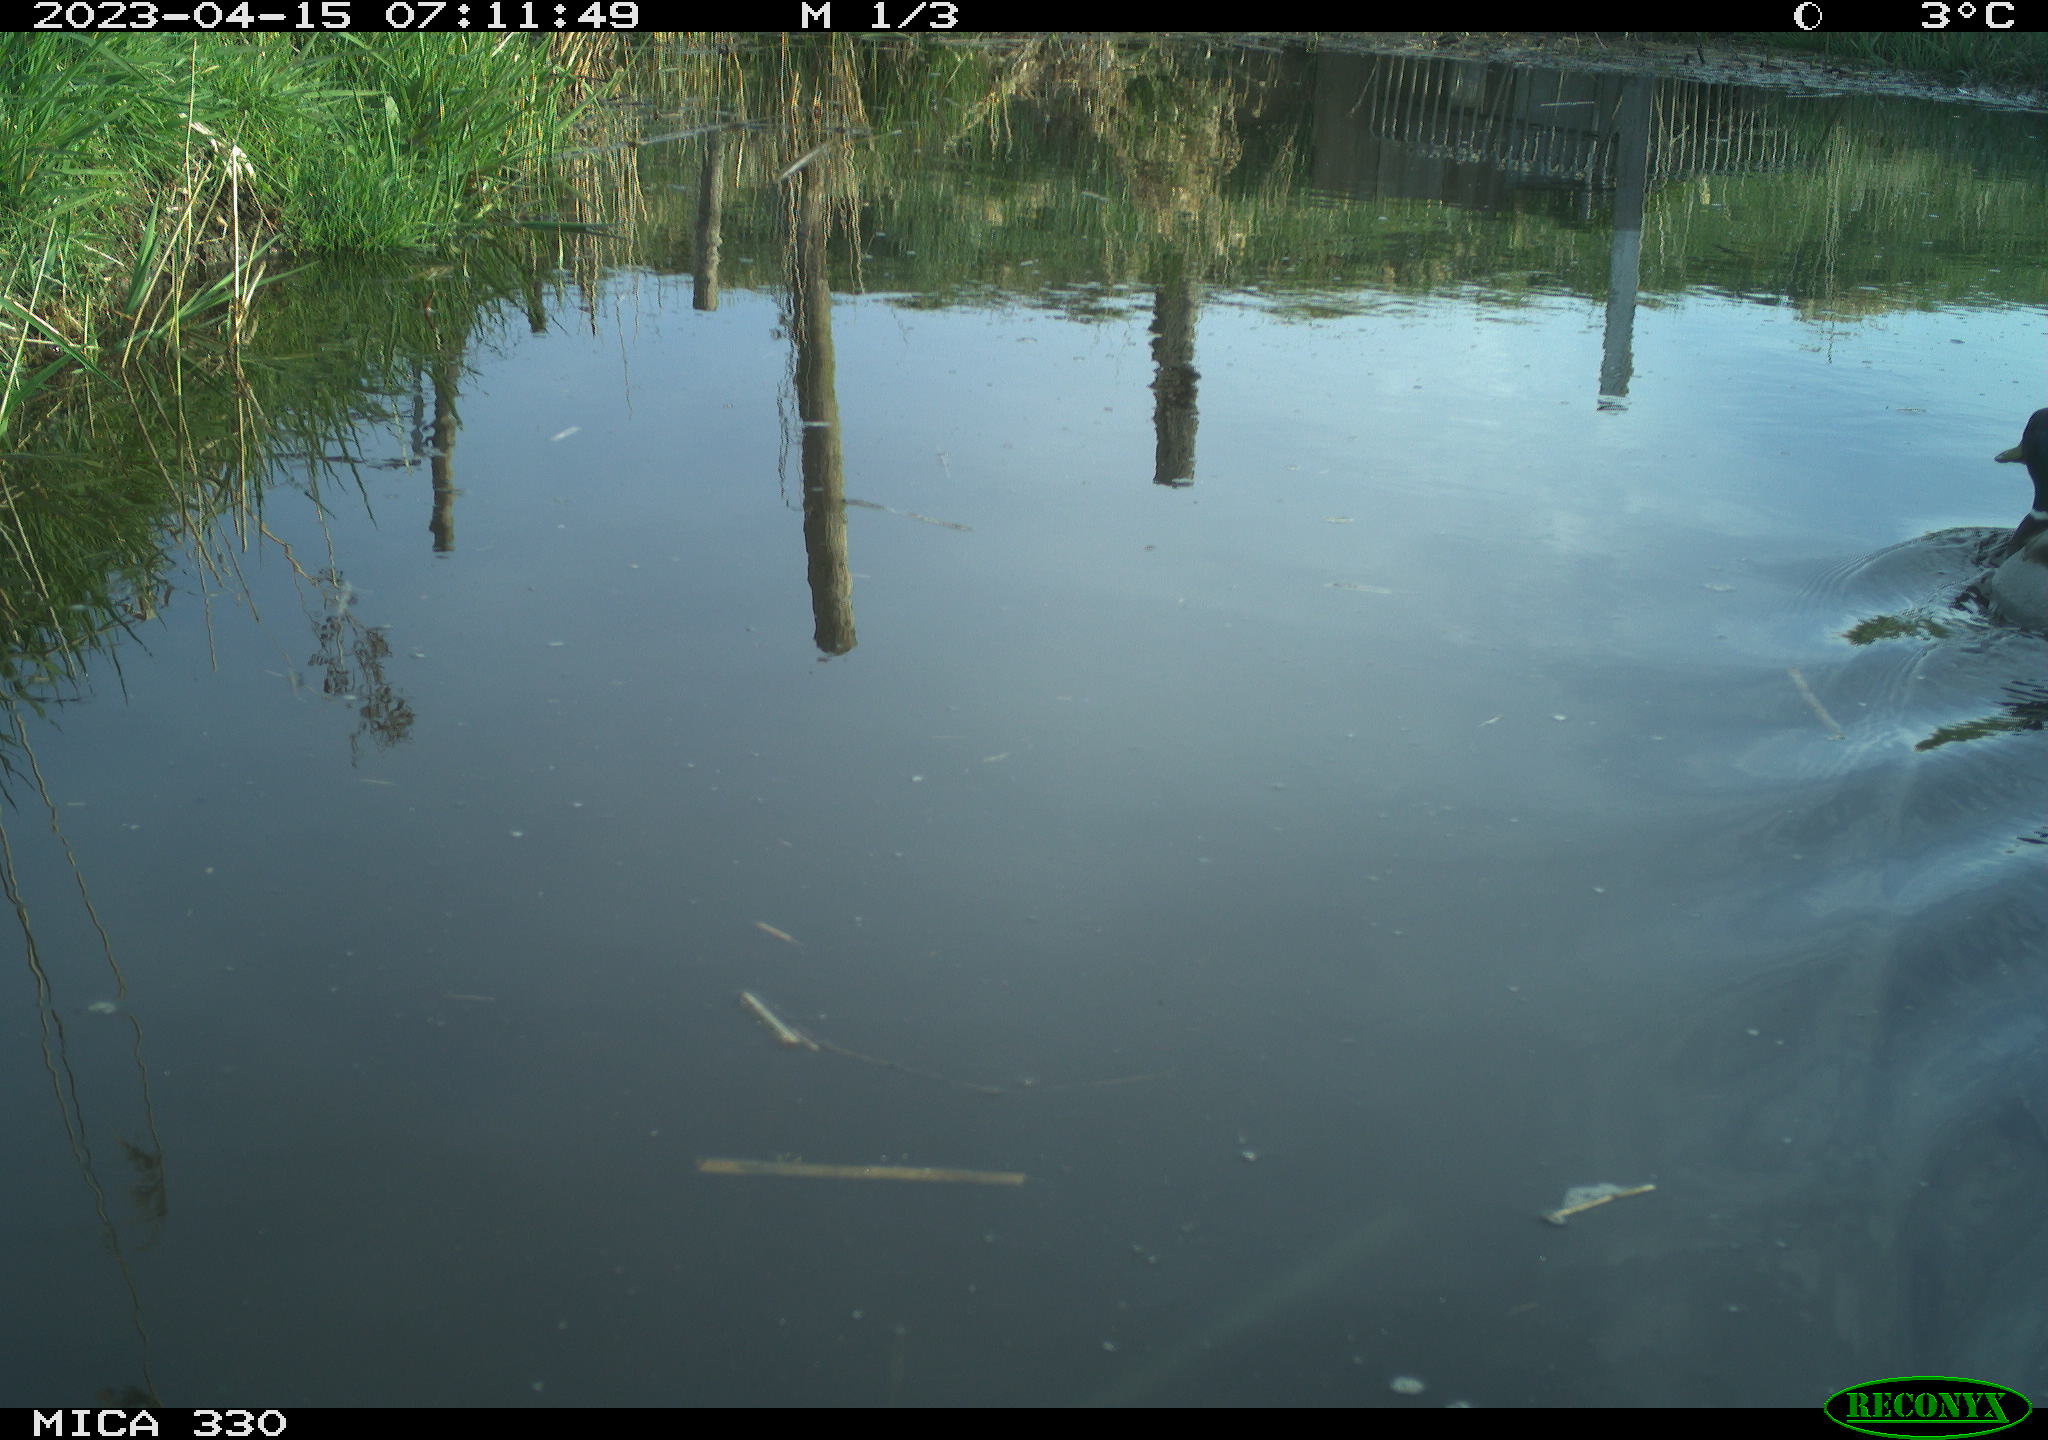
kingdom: Animalia
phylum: Chordata
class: Aves
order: Anseriformes
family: Anatidae
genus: Anas
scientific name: Anas
